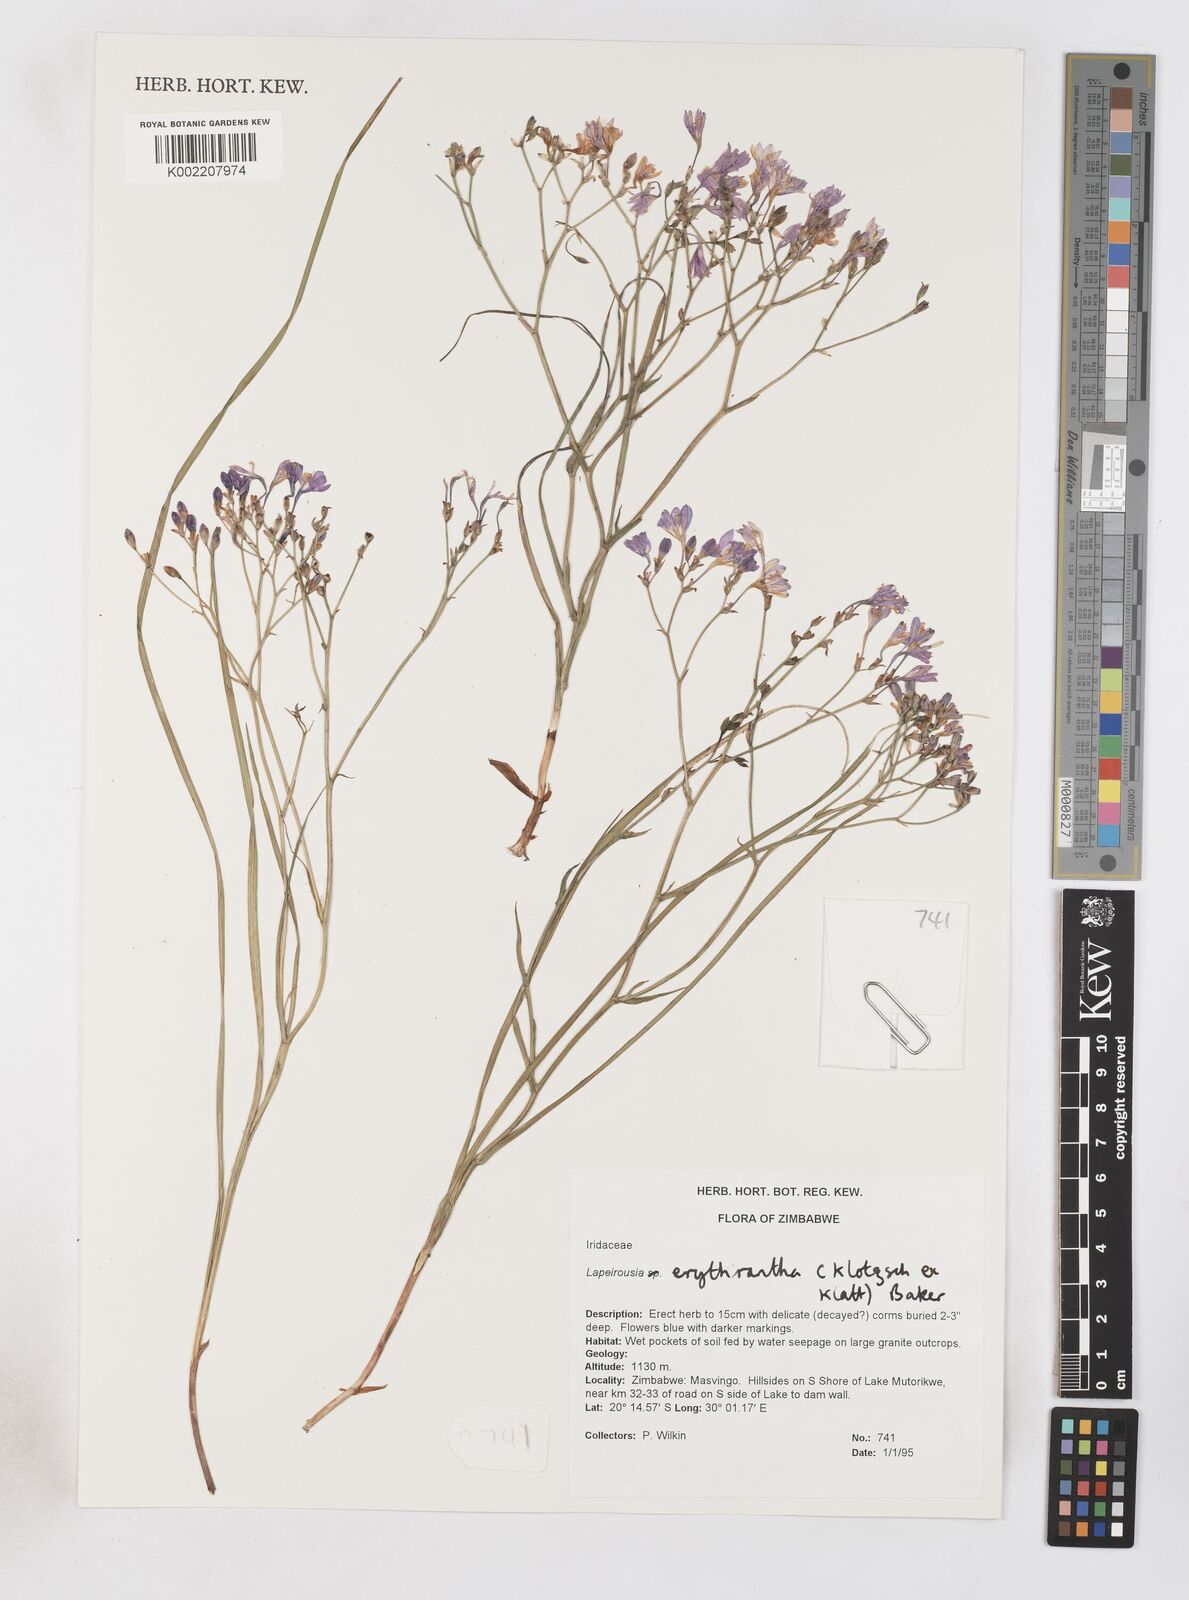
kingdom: Plantae
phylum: Tracheophyta
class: Liliopsida
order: Asparagales
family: Iridaceae
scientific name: Iridaceae
